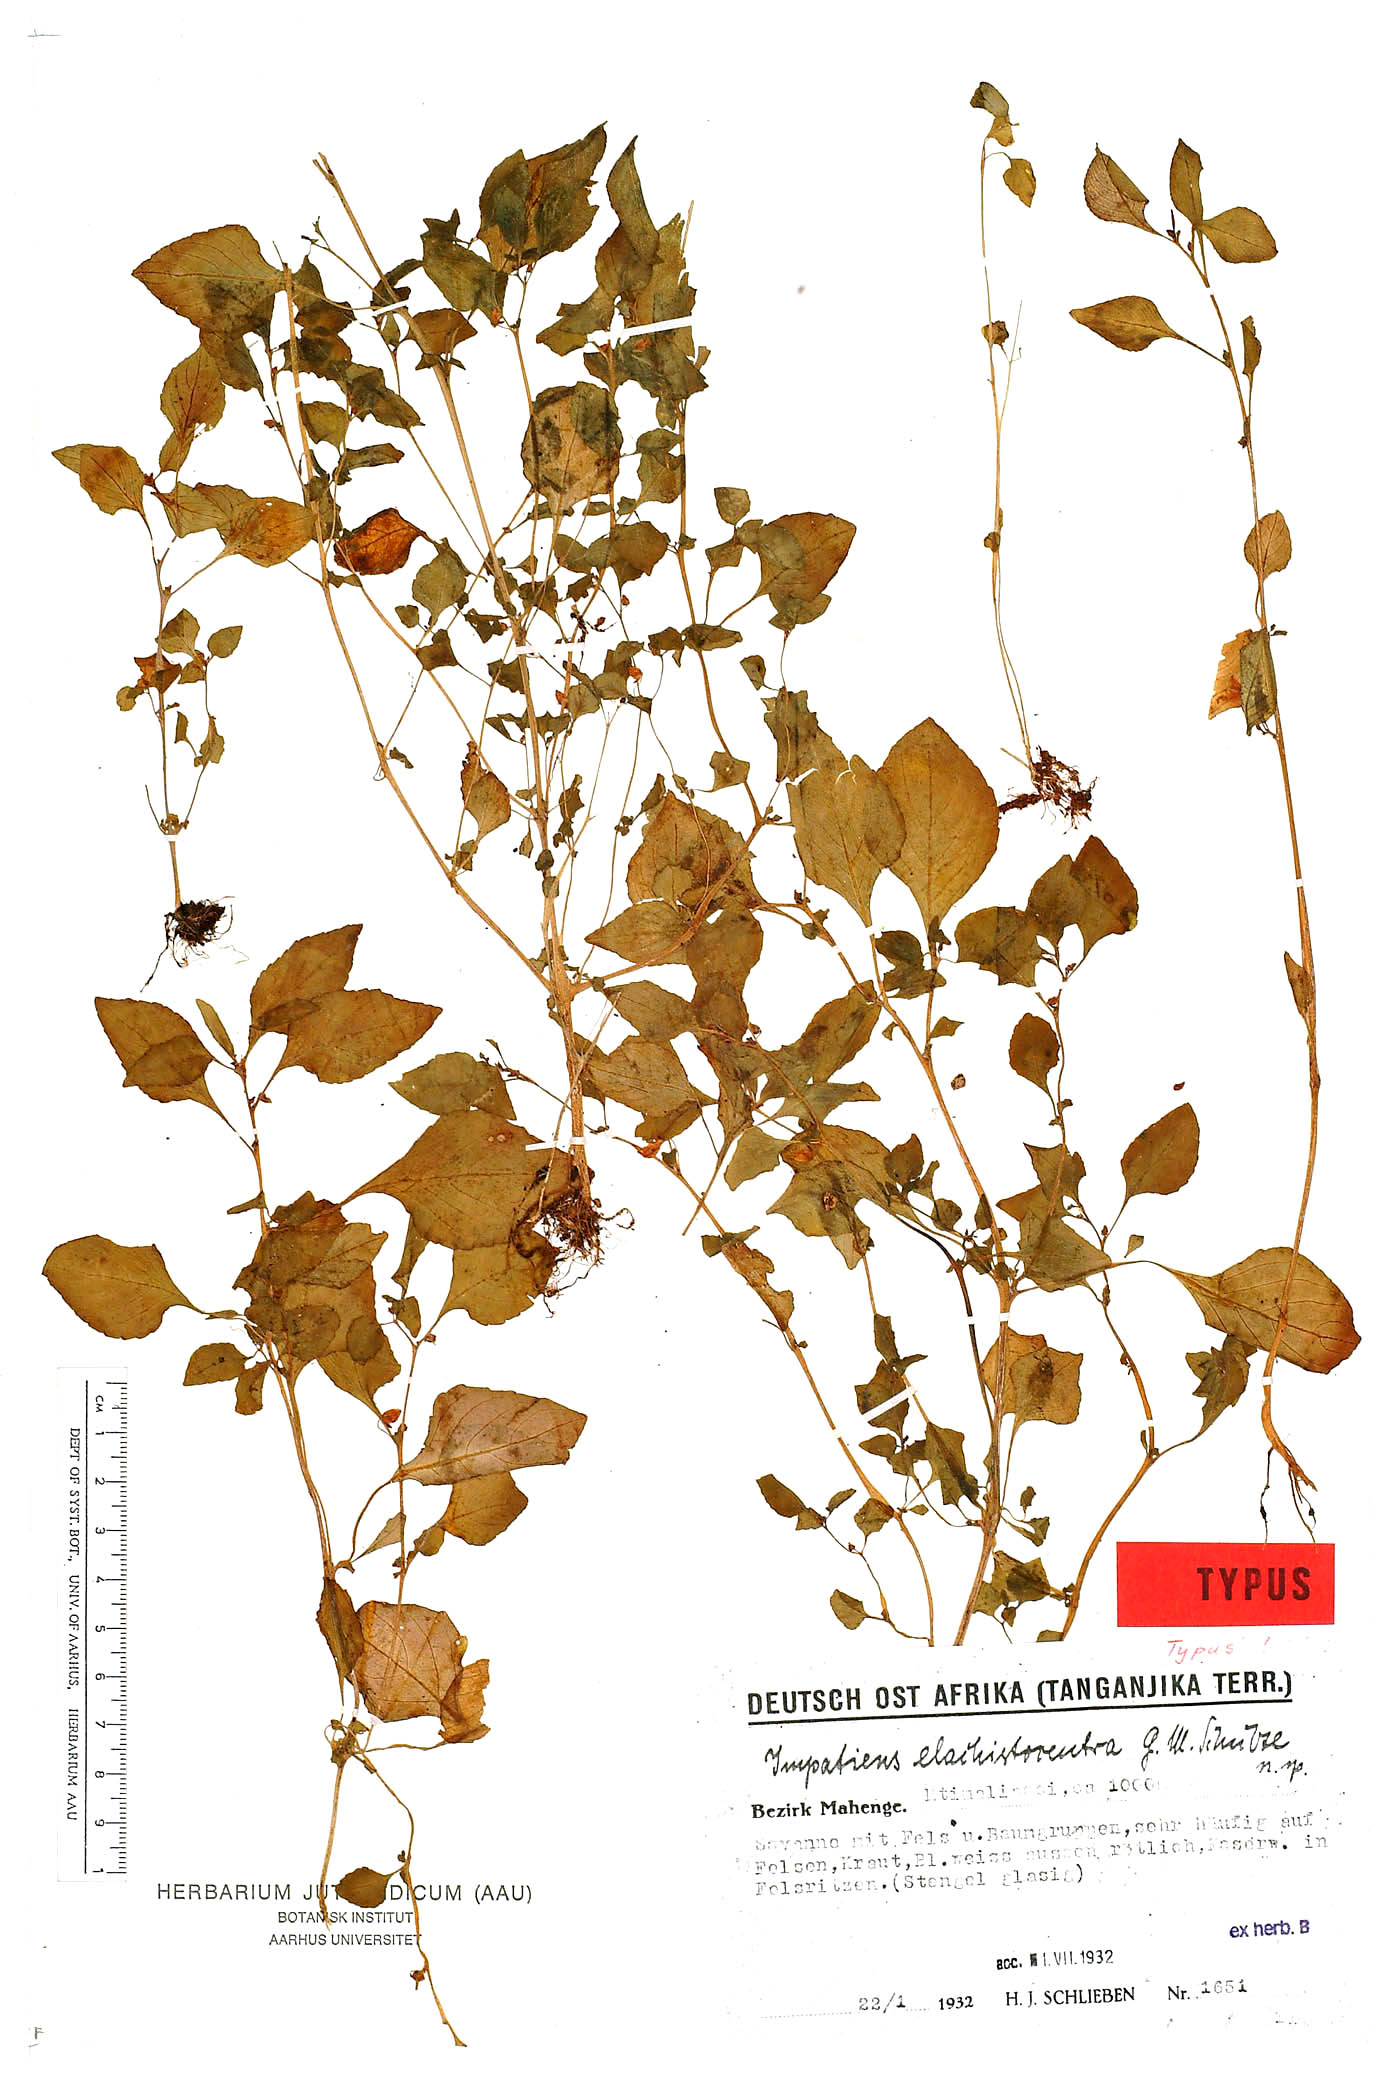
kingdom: Plantae
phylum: Tracheophyta
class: Magnoliopsida
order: Ericales
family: Balsaminaceae
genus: Impatiens
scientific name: Impatiens elachistocentra
